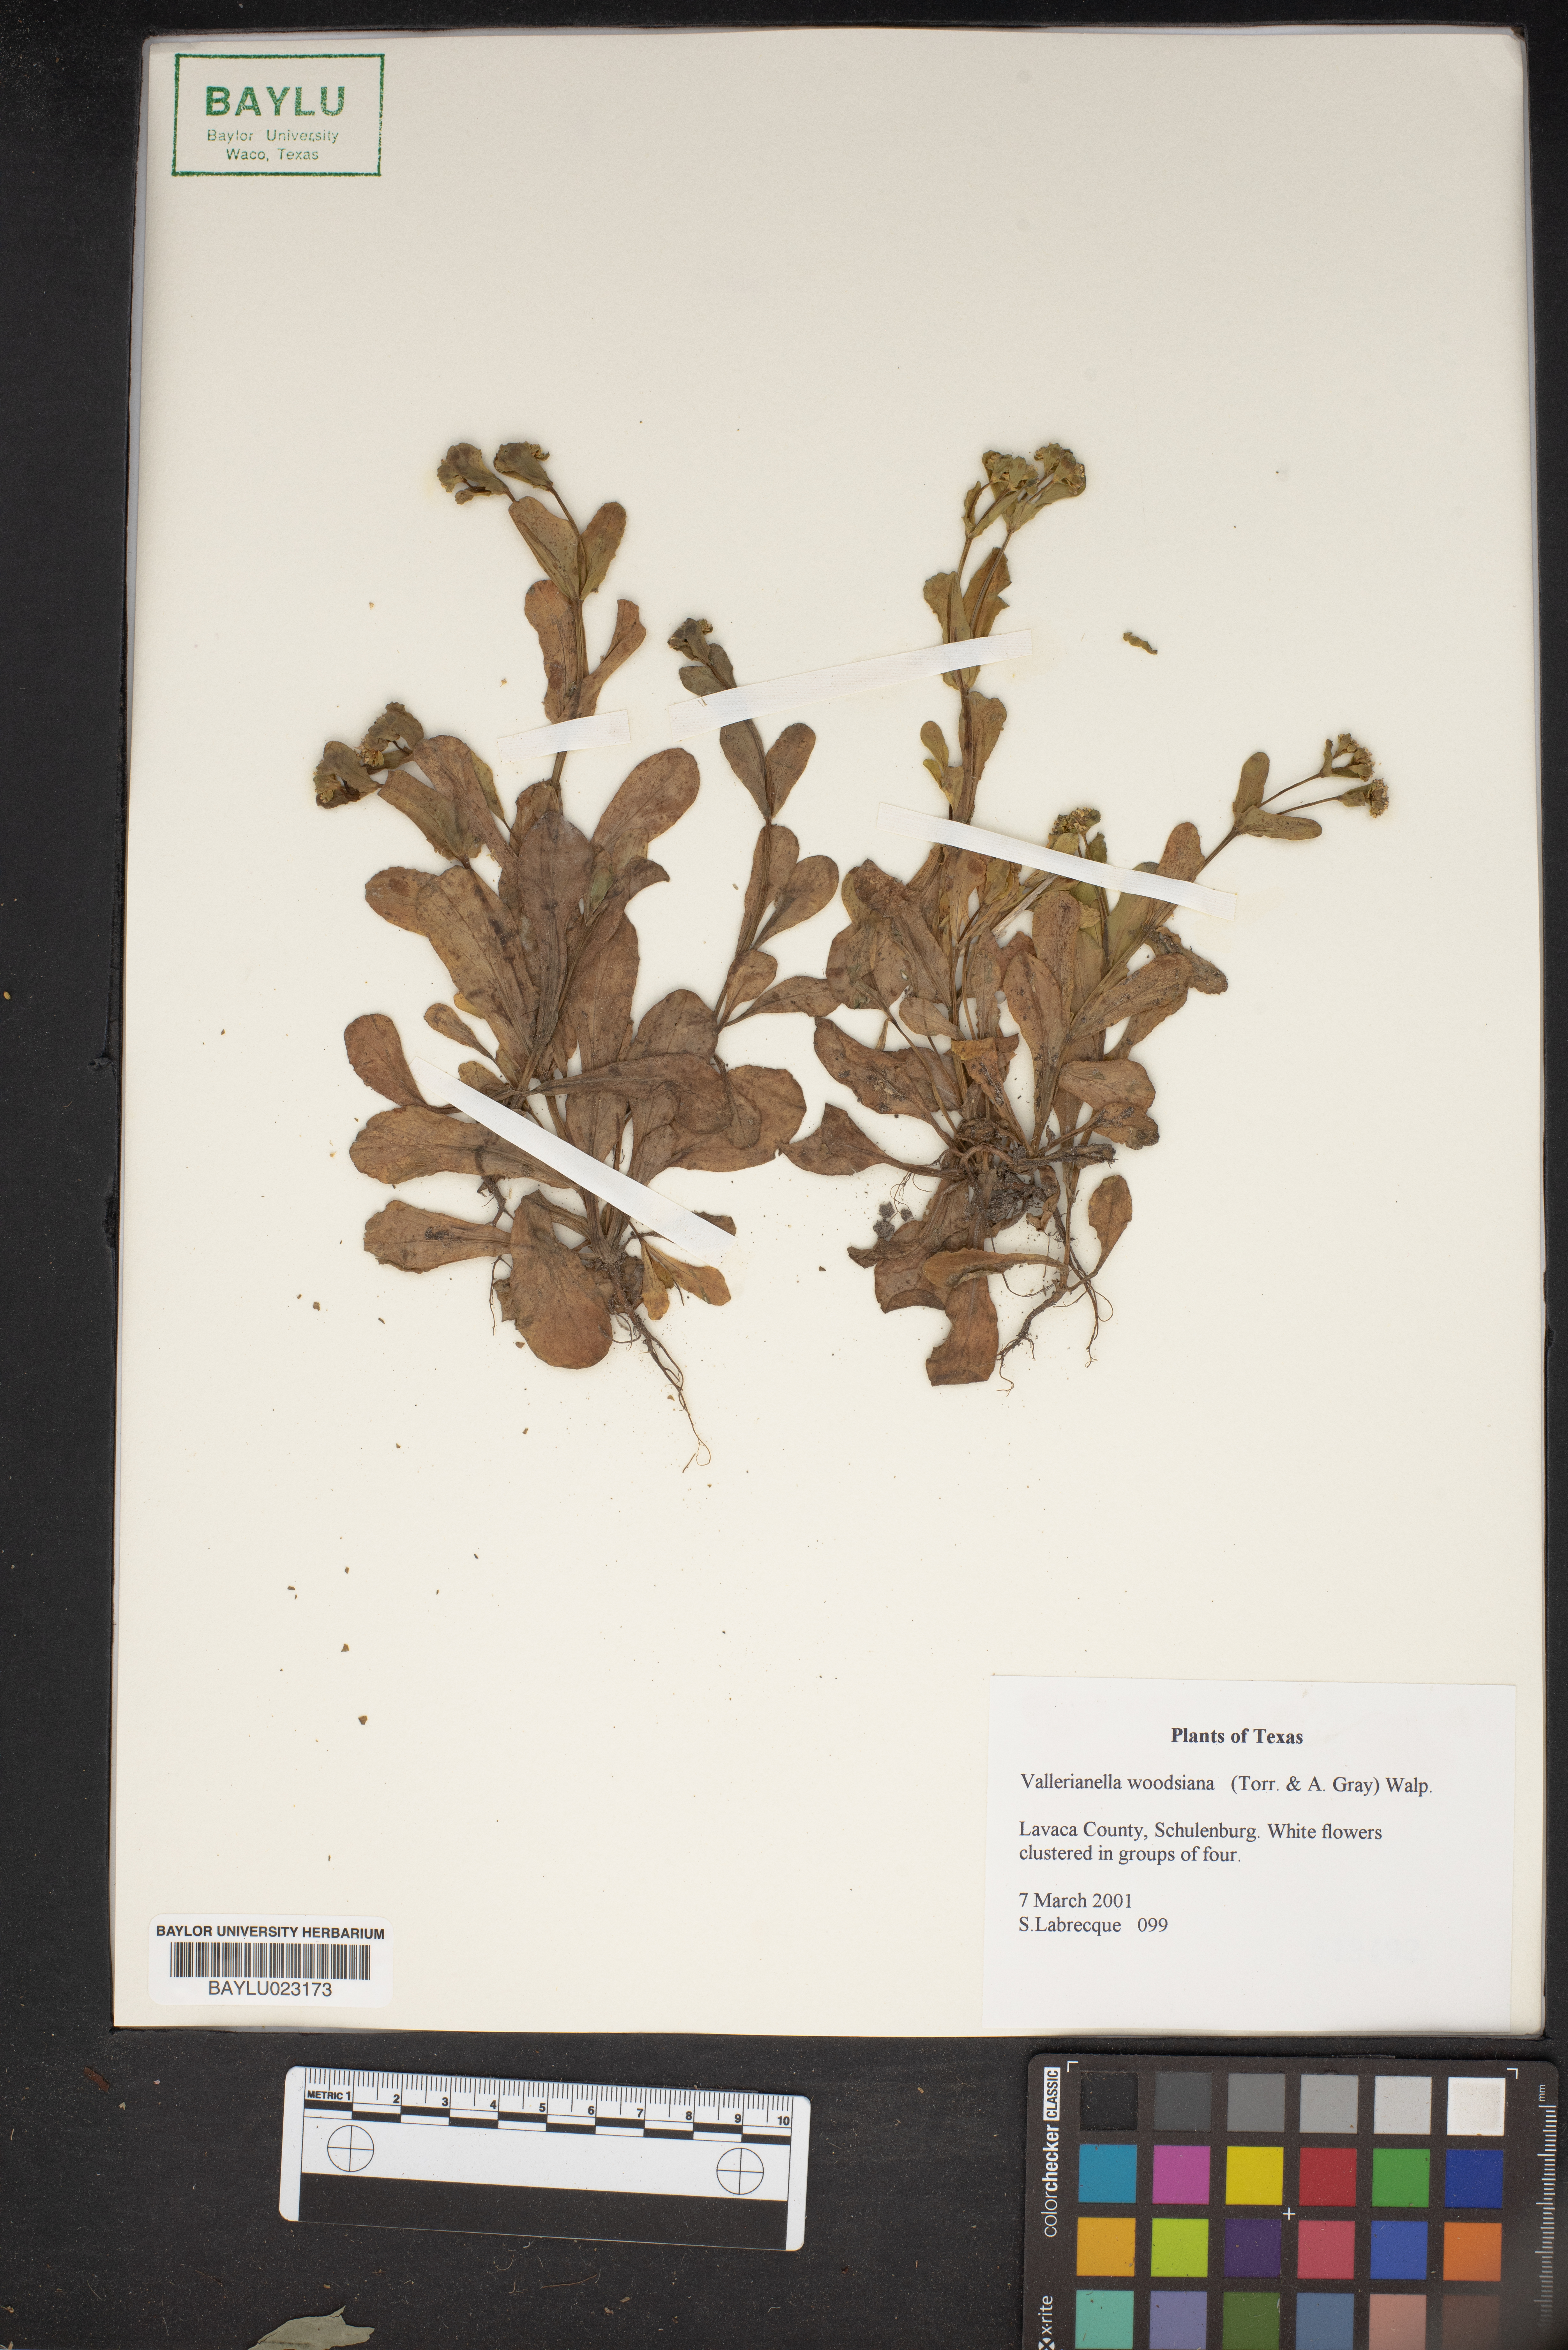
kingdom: Plantae
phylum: Tracheophyta
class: Magnoliopsida
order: Dipsacales
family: Caprifoliaceae
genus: Valerianella
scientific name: Valerianella radiata
